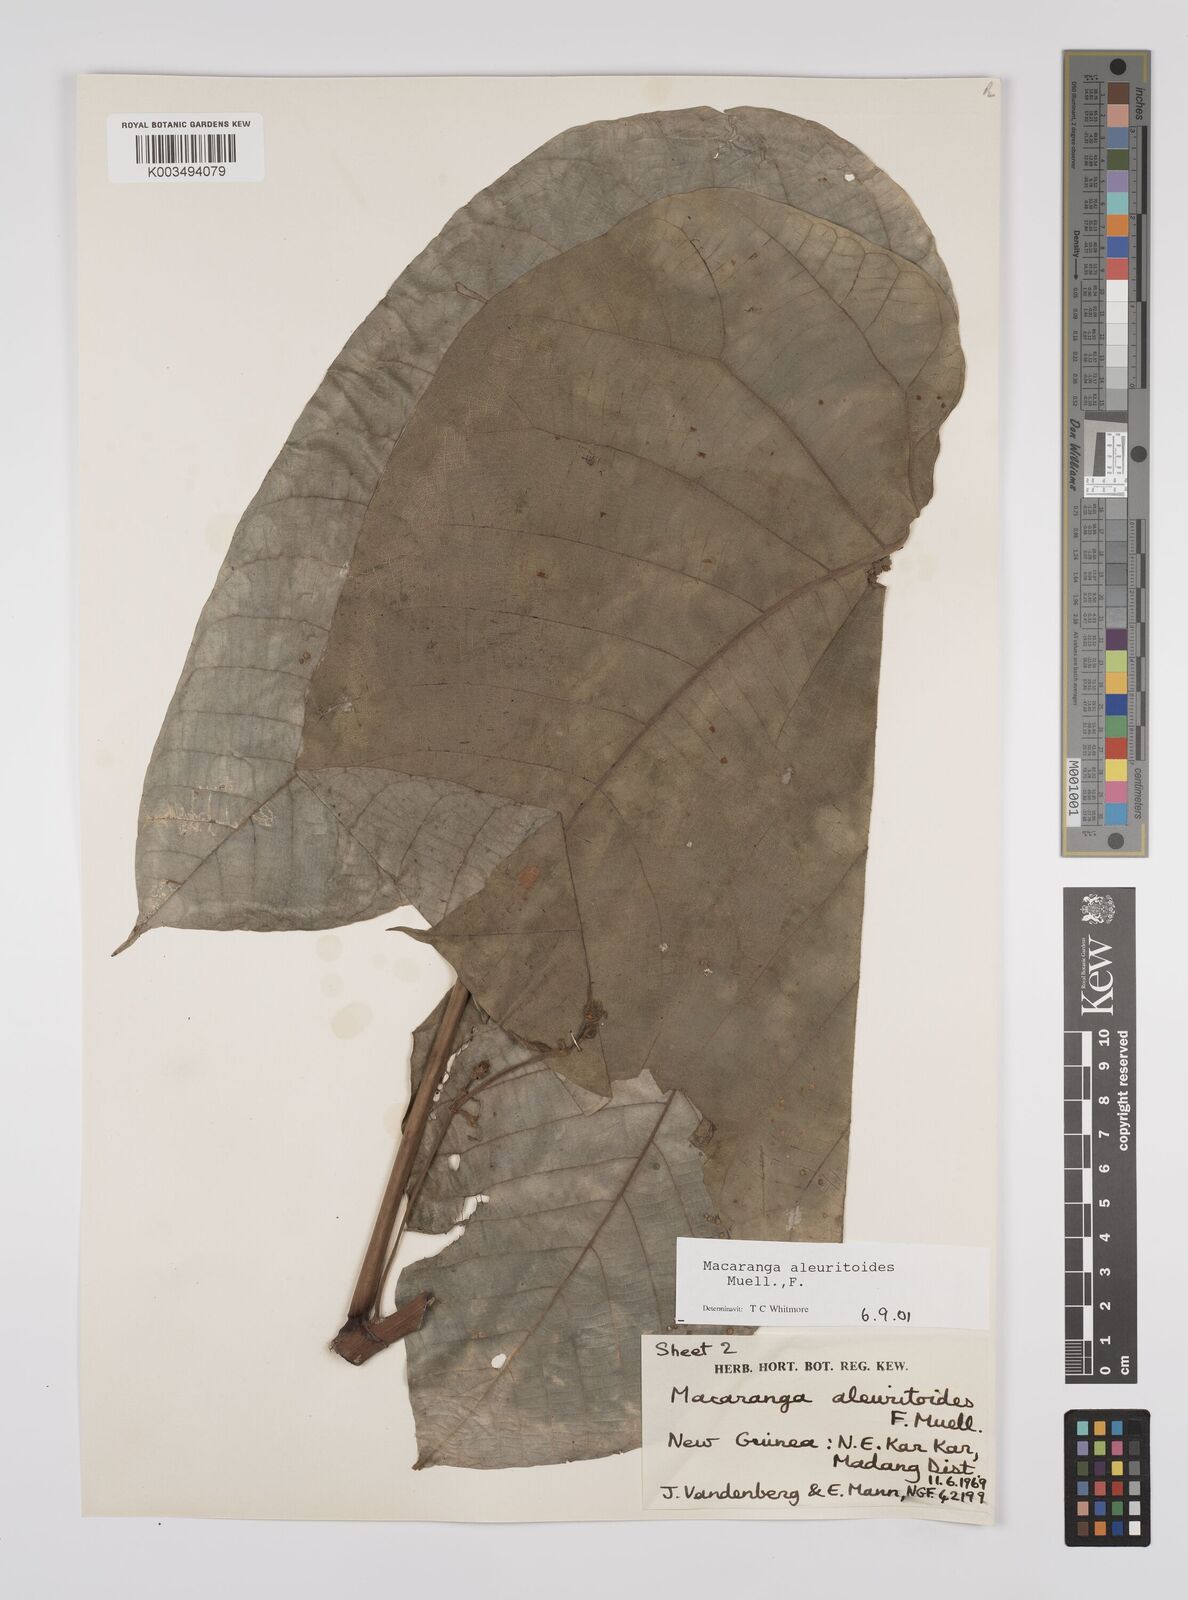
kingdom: Plantae
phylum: Tracheophyta
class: Magnoliopsida
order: Malpighiales
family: Euphorbiaceae
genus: Macaranga
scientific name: Macaranga aleuritoides
